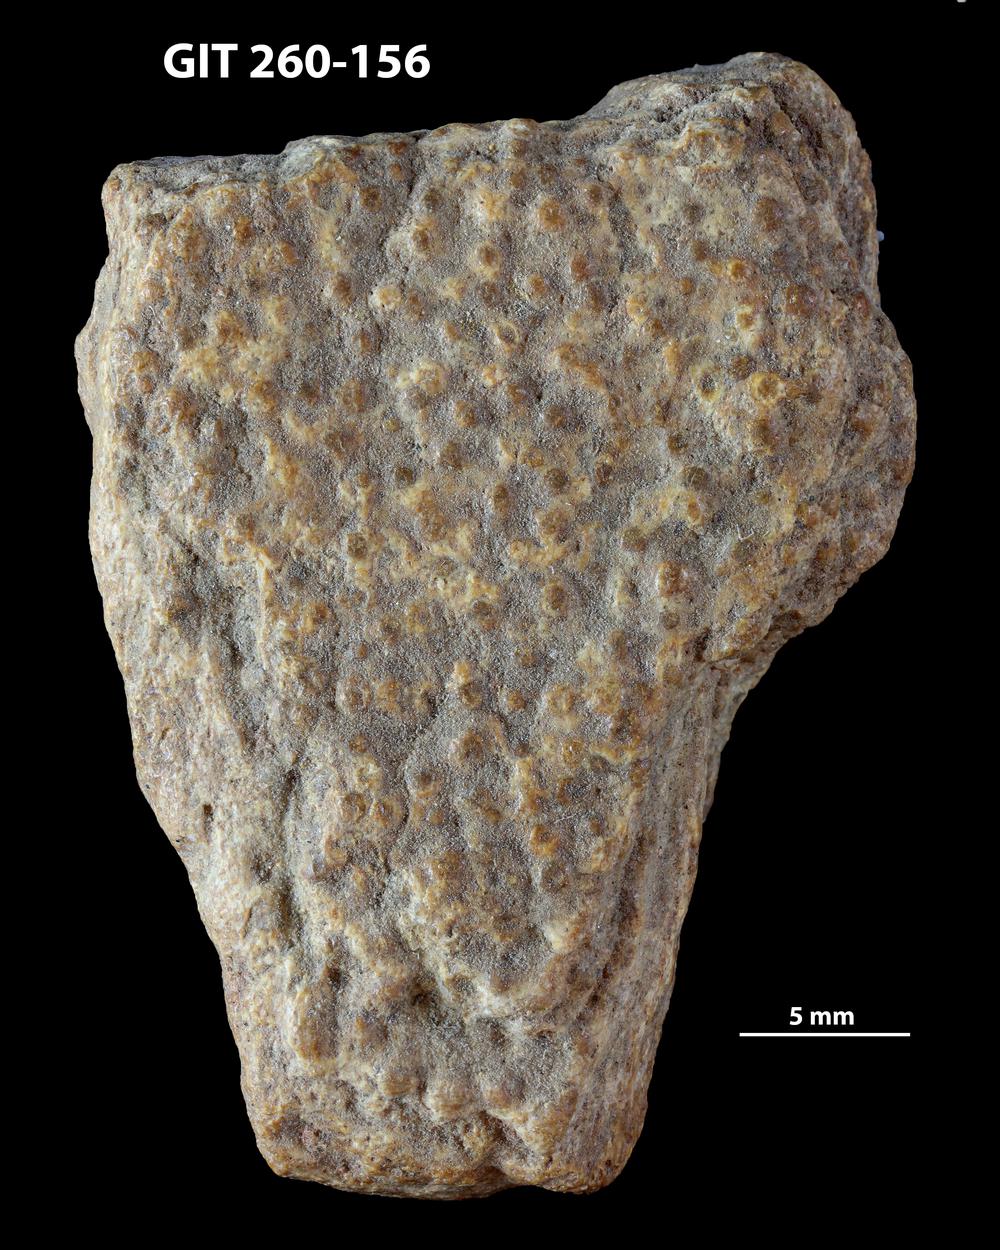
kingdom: Animalia
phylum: Chordata
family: Homostiidae
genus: Homostius
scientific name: Homostius
